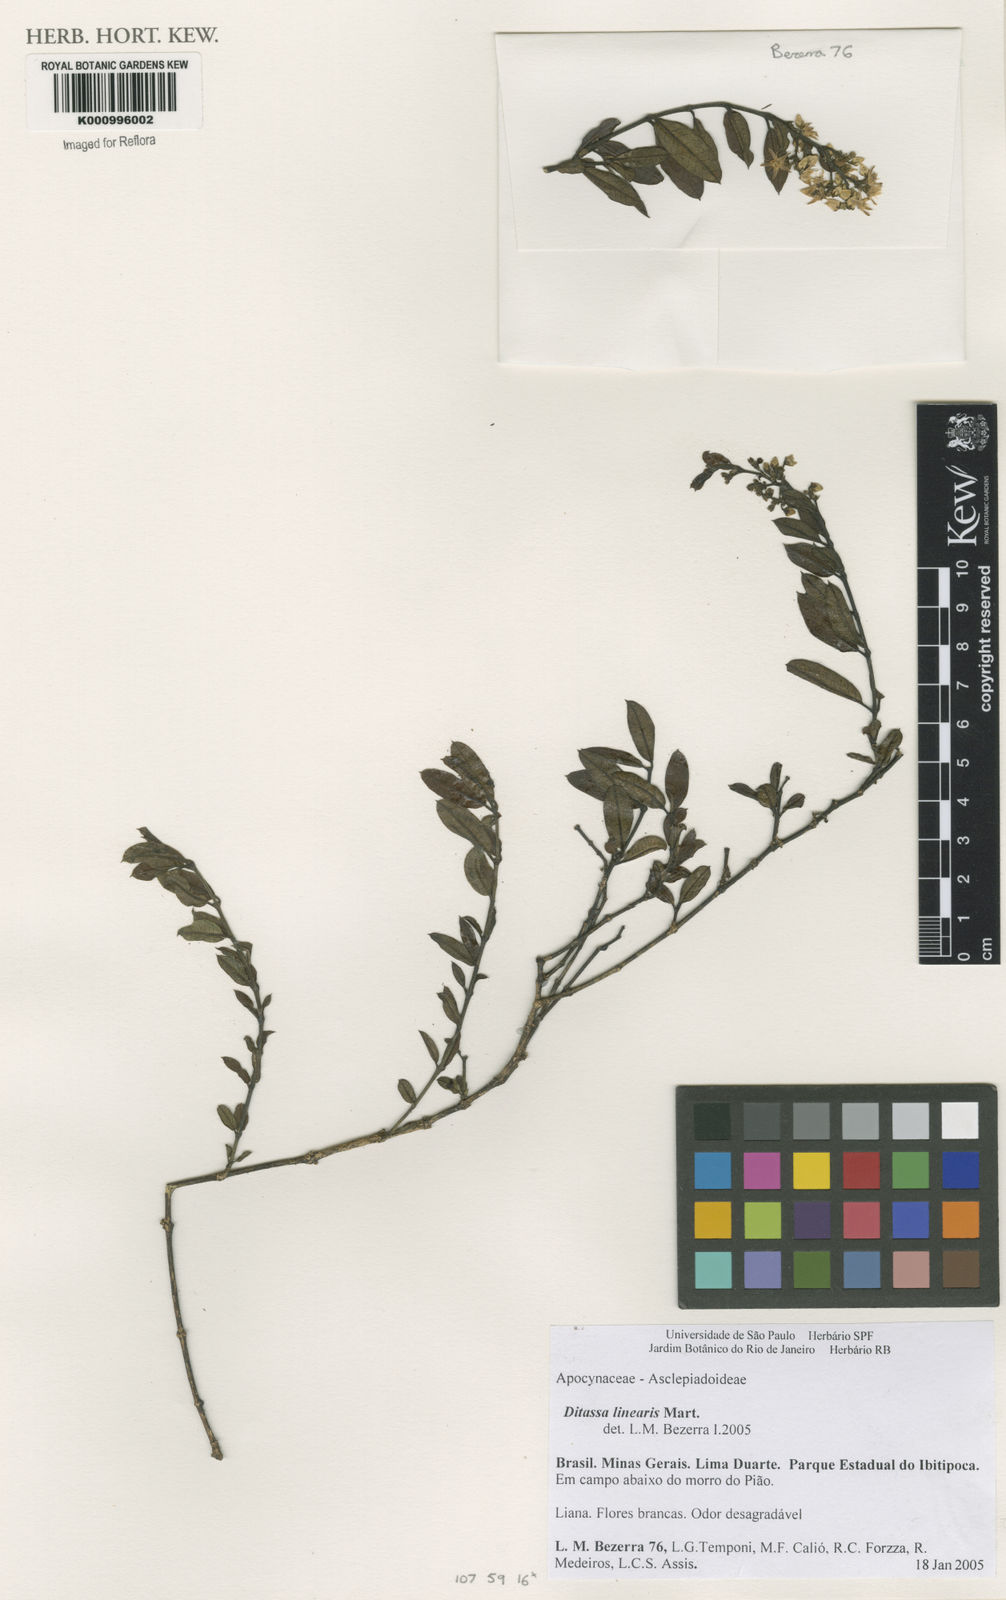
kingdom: Plantae
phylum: Tracheophyta
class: Magnoliopsida
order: Gentianales
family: Apocynaceae
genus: Ditassa
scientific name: Ditassa linearis
